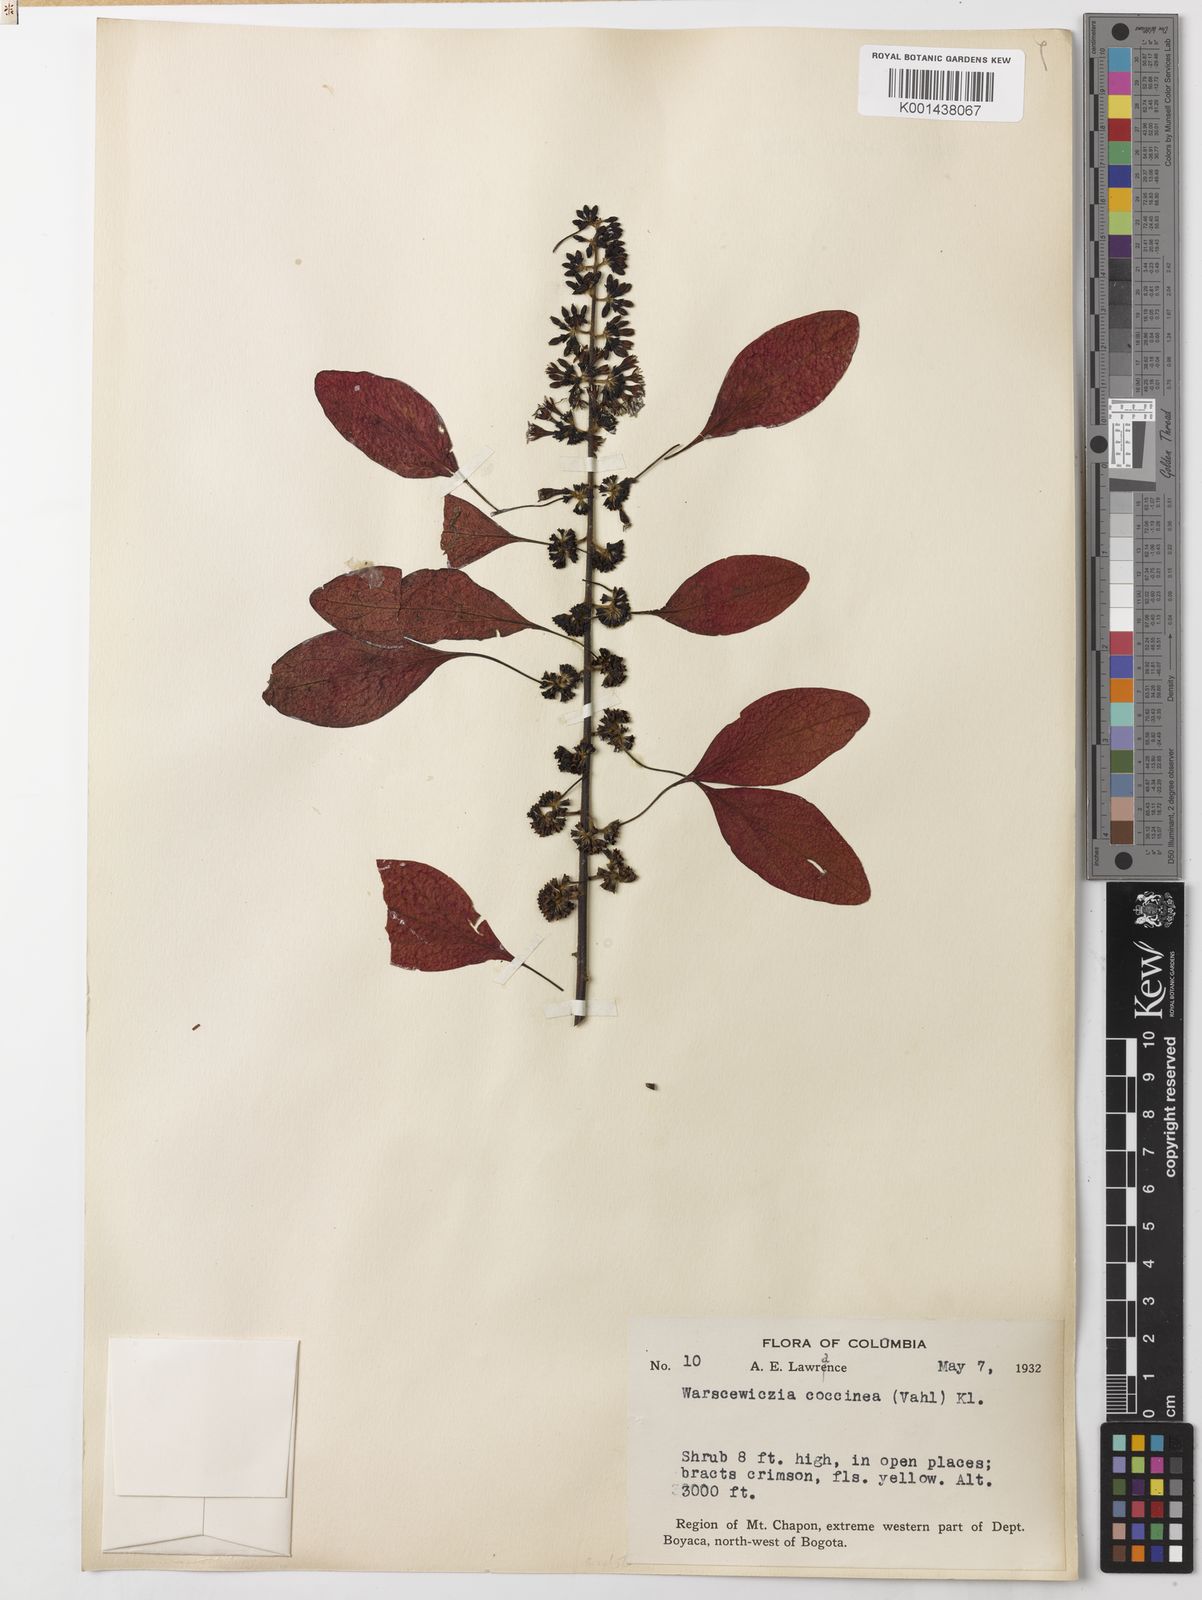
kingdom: Plantae
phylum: Tracheophyta
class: Magnoliopsida
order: Gentianales
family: Rubiaceae
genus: Warszewiczia
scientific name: Warszewiczia coccinea
